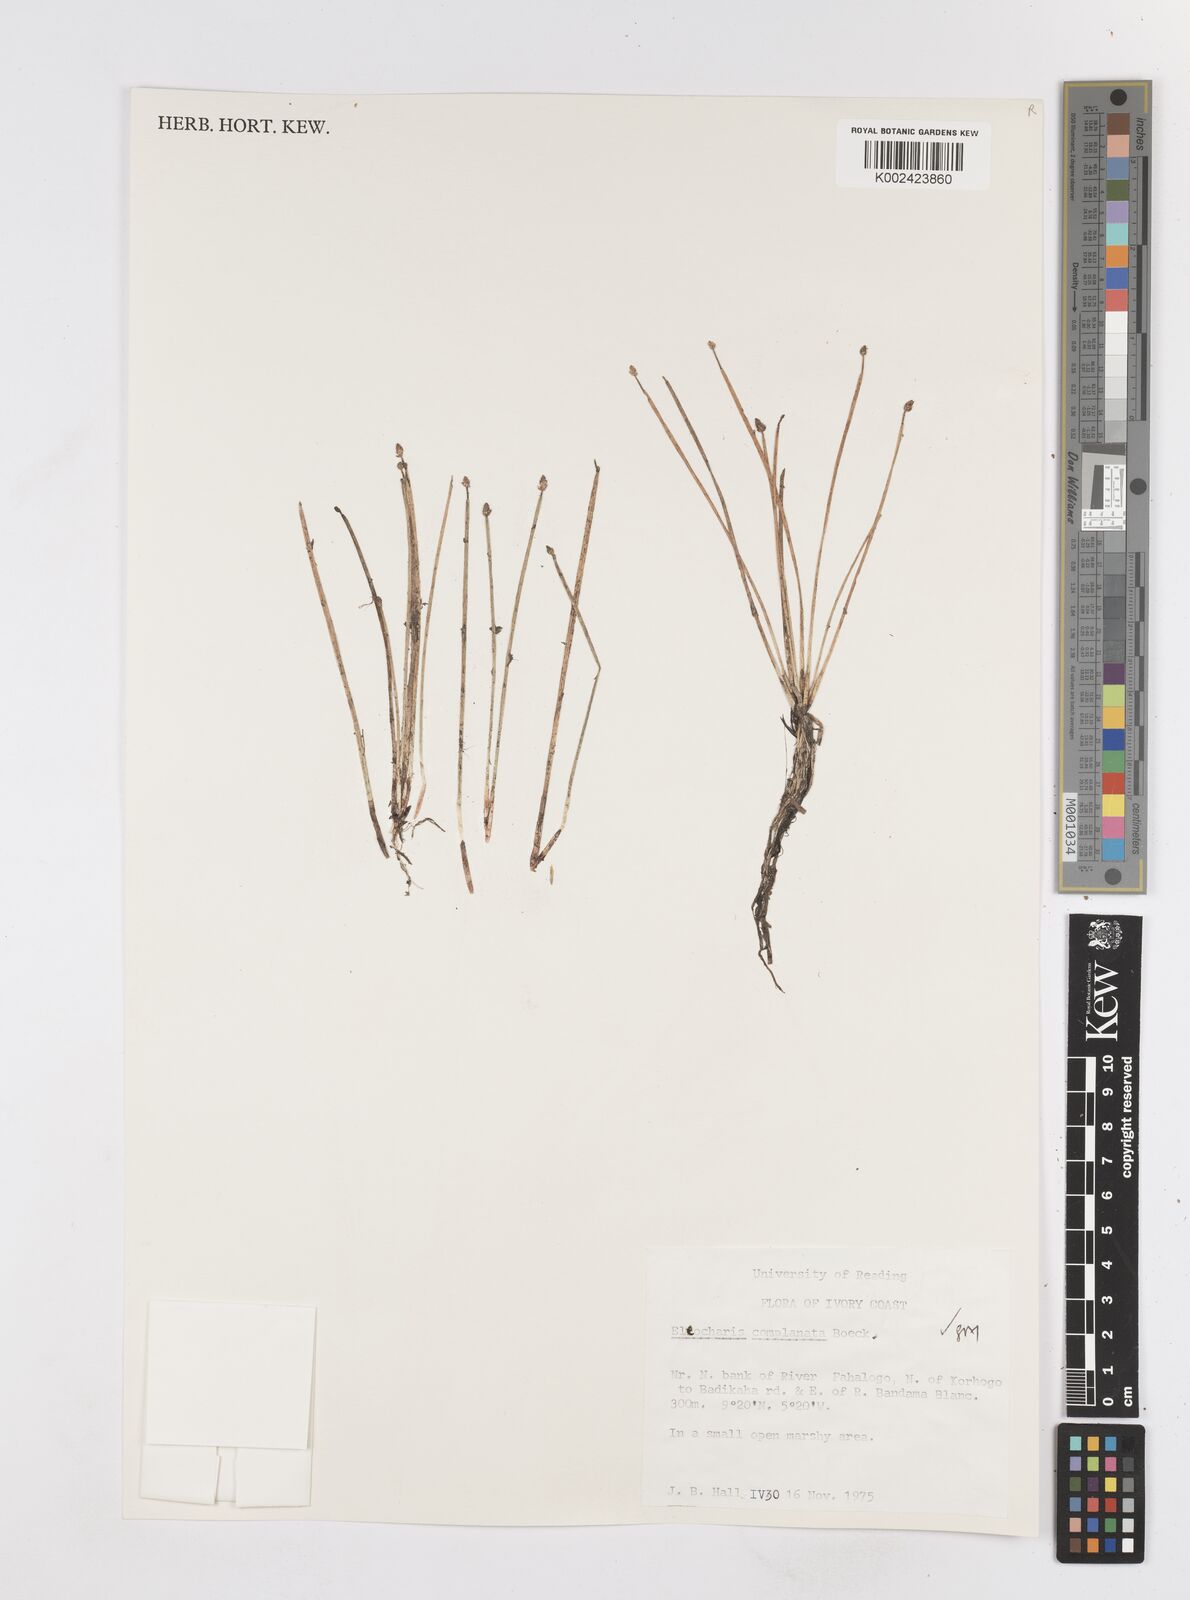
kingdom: Plantae
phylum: Tracheophyta
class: Liliopsida
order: Poales
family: Cyperaceae
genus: Eleocharis
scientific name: Eleocharis complanata
